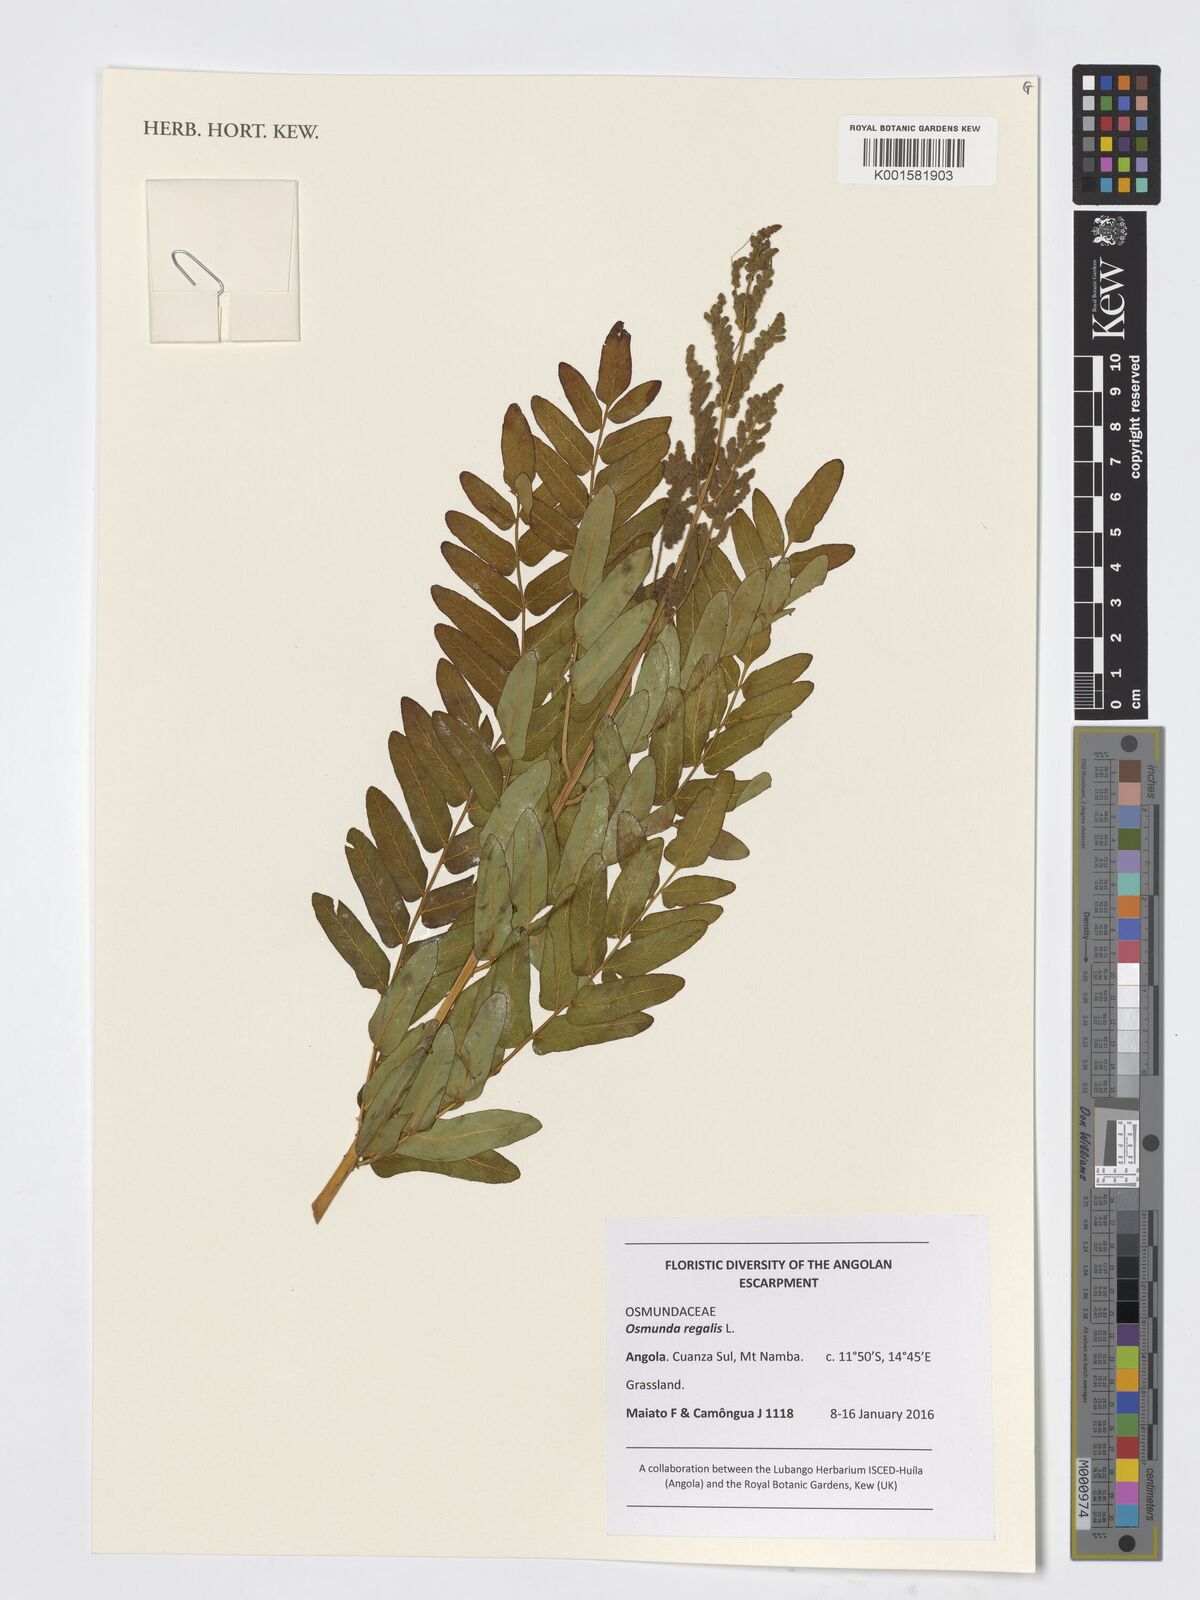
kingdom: Plantae
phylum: Tracheophyta
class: Polypodiopsida
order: Osmundales
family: Osmundaceae
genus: Osmunda
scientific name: Osmunda regalis
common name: Royal fern
